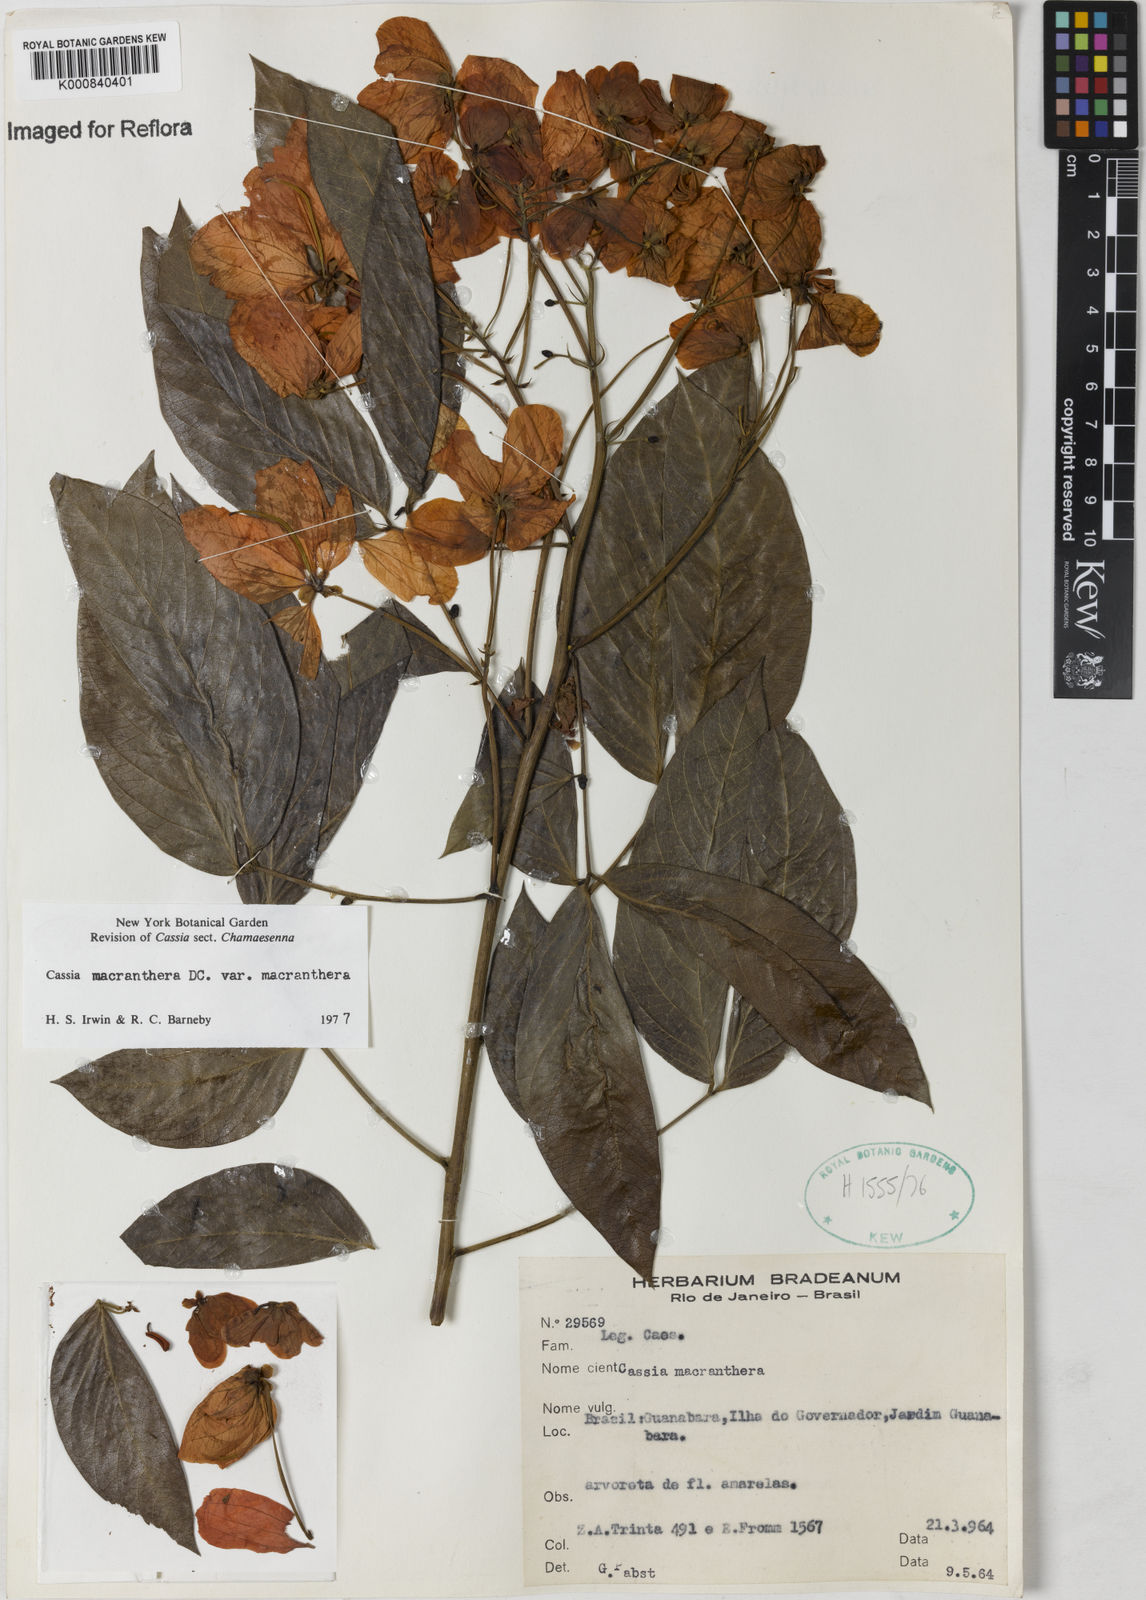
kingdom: Plantae
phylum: Tracheophyta
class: Magnoliopsida
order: Fabales
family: Fabaceae
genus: Senna
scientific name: Senna macranthera
